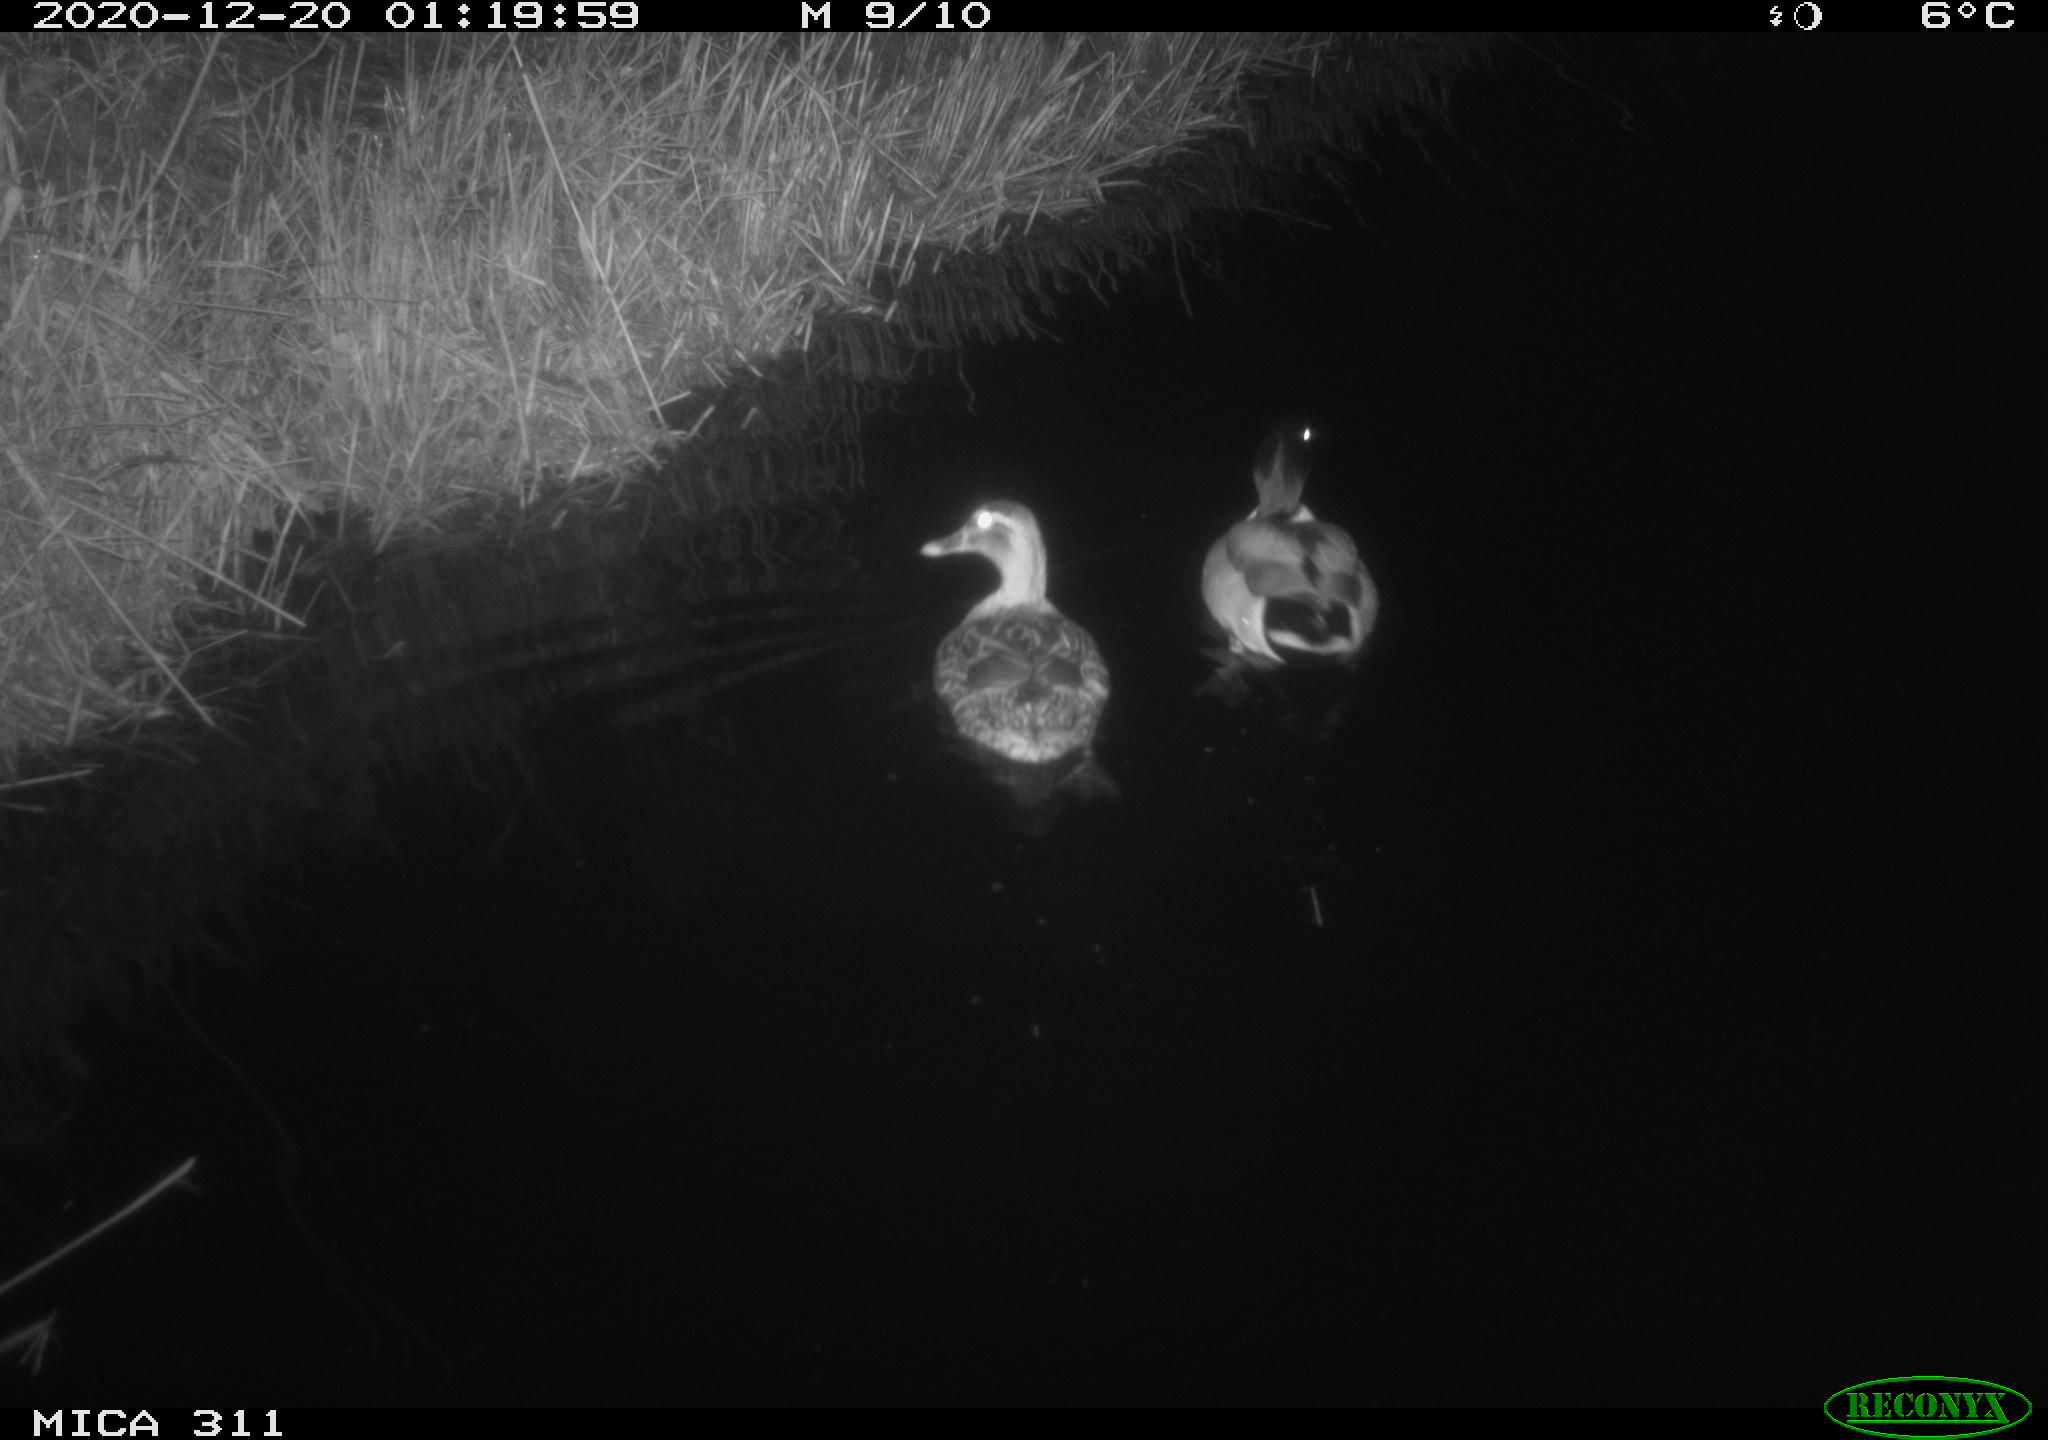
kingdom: Animalia
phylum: Chordata
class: Aves
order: Anseriformes
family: Anatidae
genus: Anas
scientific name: Anas platyrhynchos
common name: Mallard
